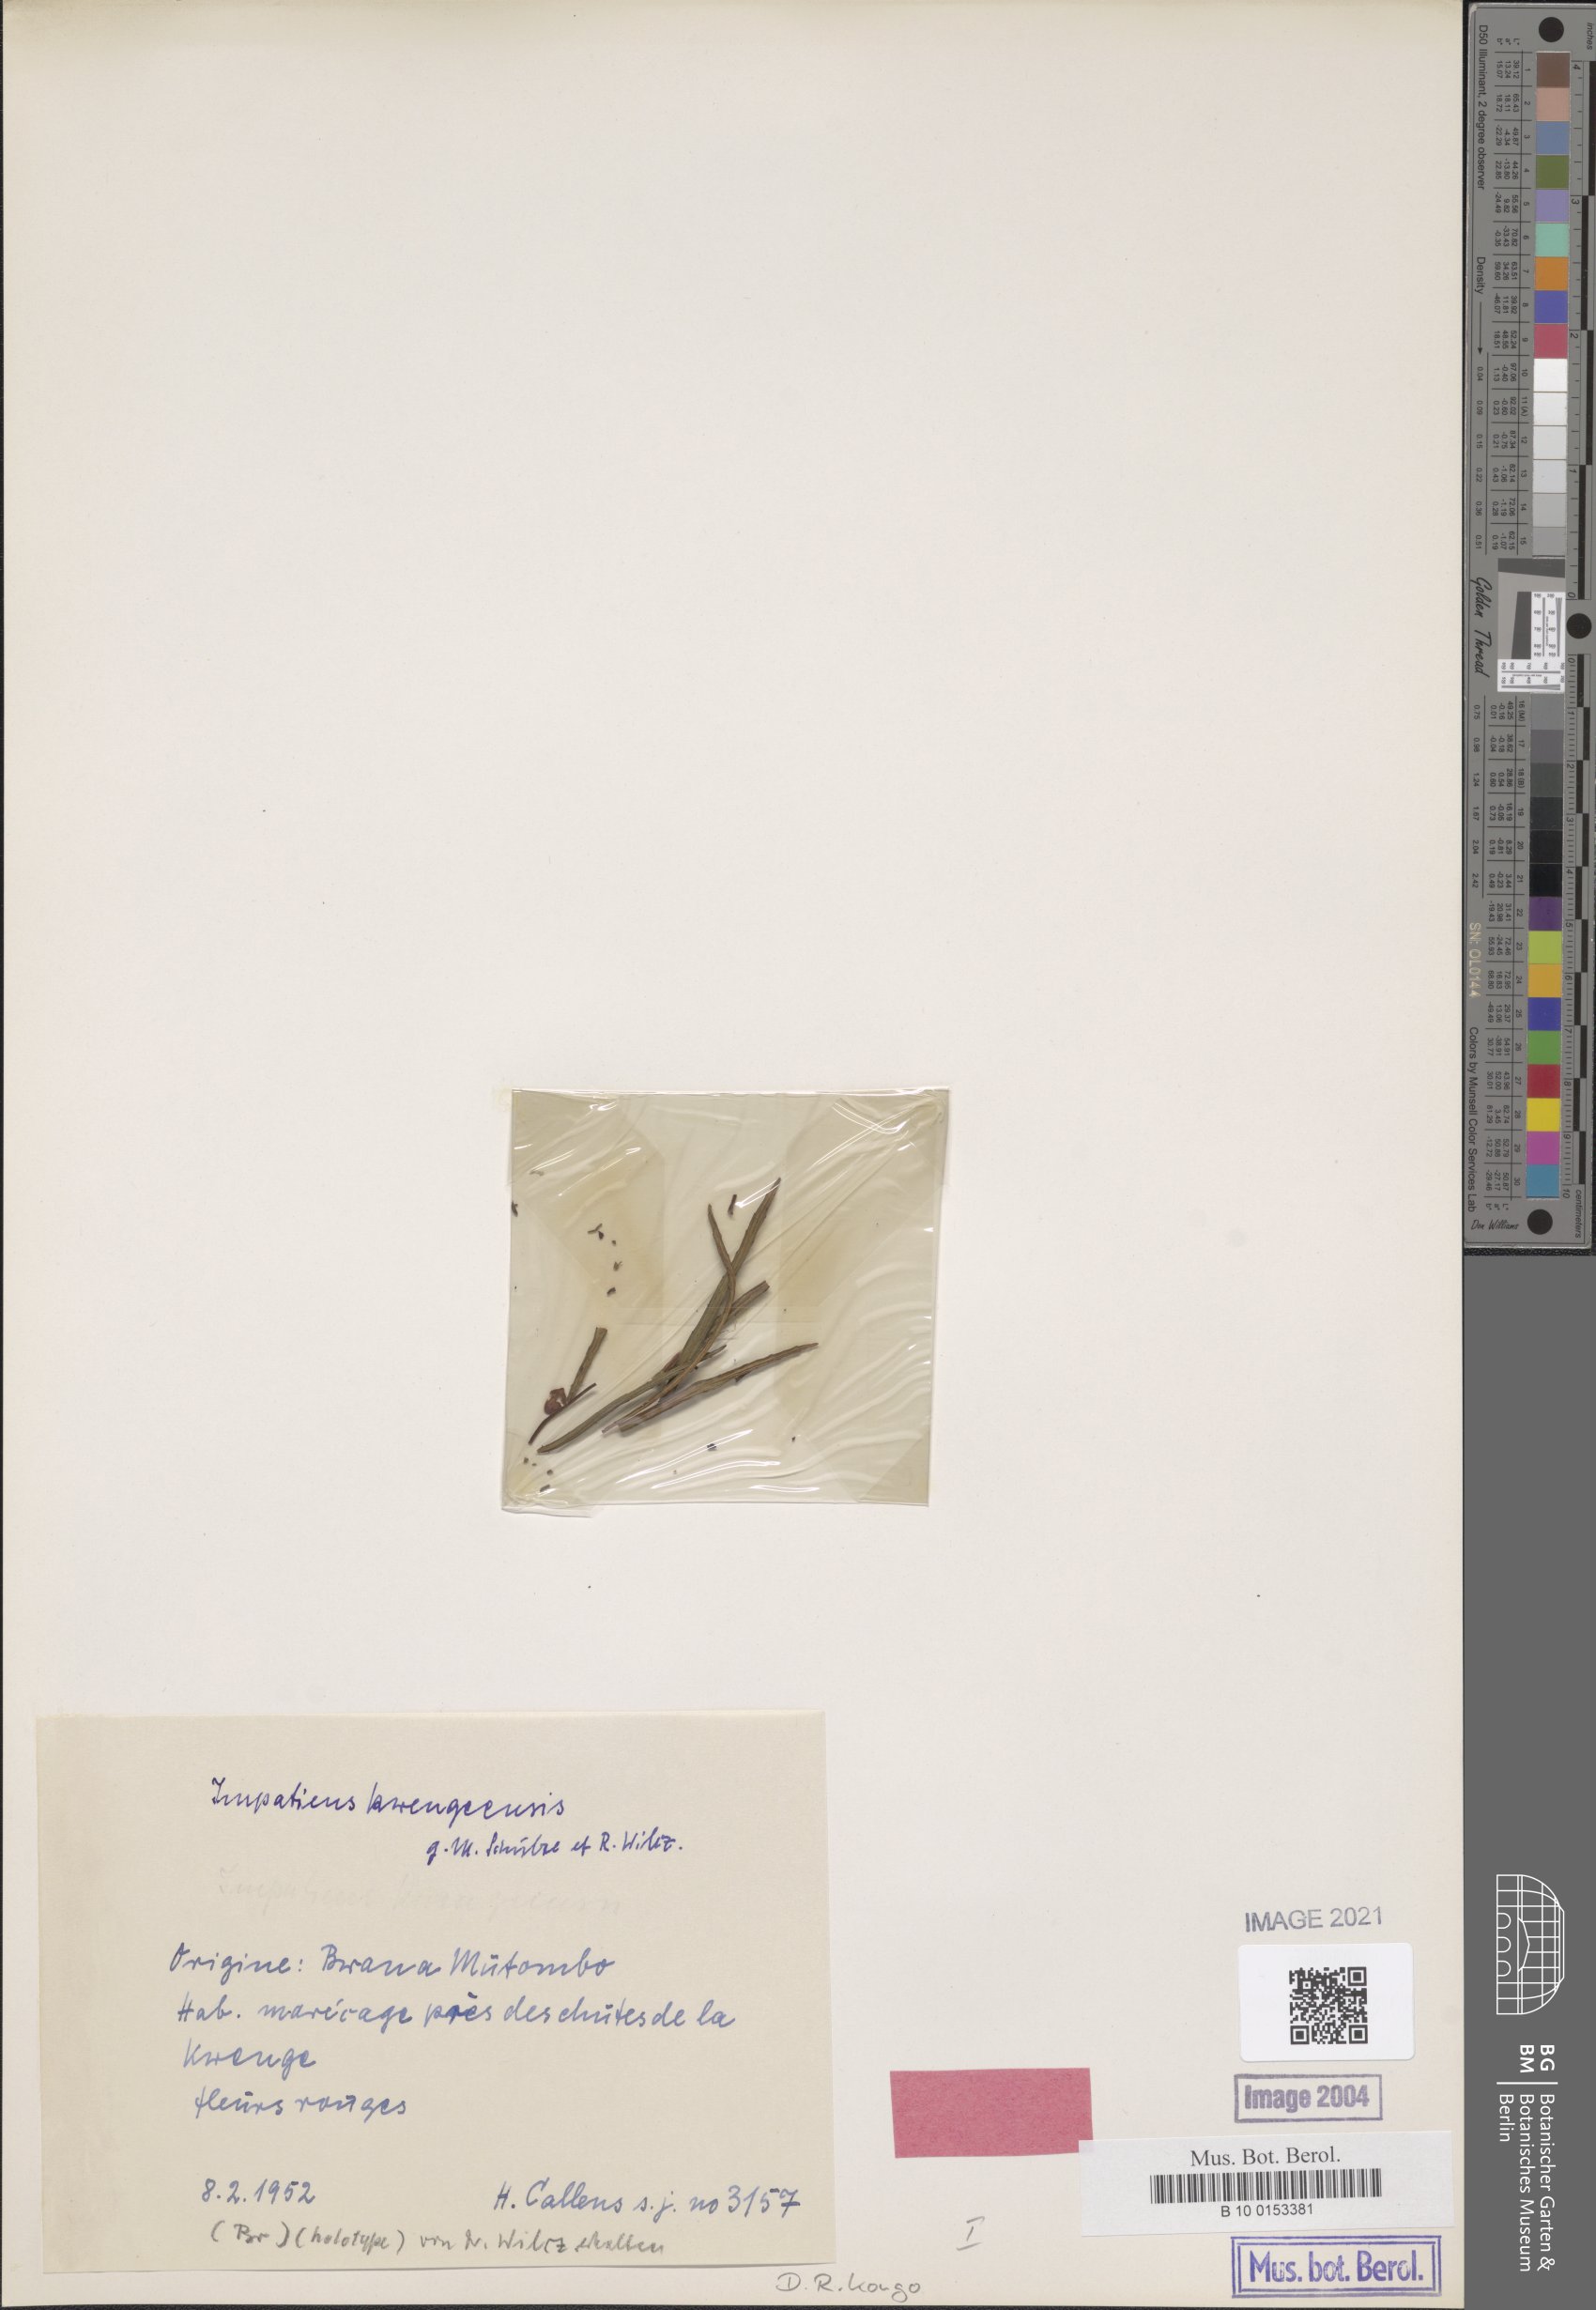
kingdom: Plantae
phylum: Tracheophyta
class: Magnoliopsida
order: Ericales
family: Balsaminaceae
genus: Impatiens
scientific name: Impatiens kwengeensis
